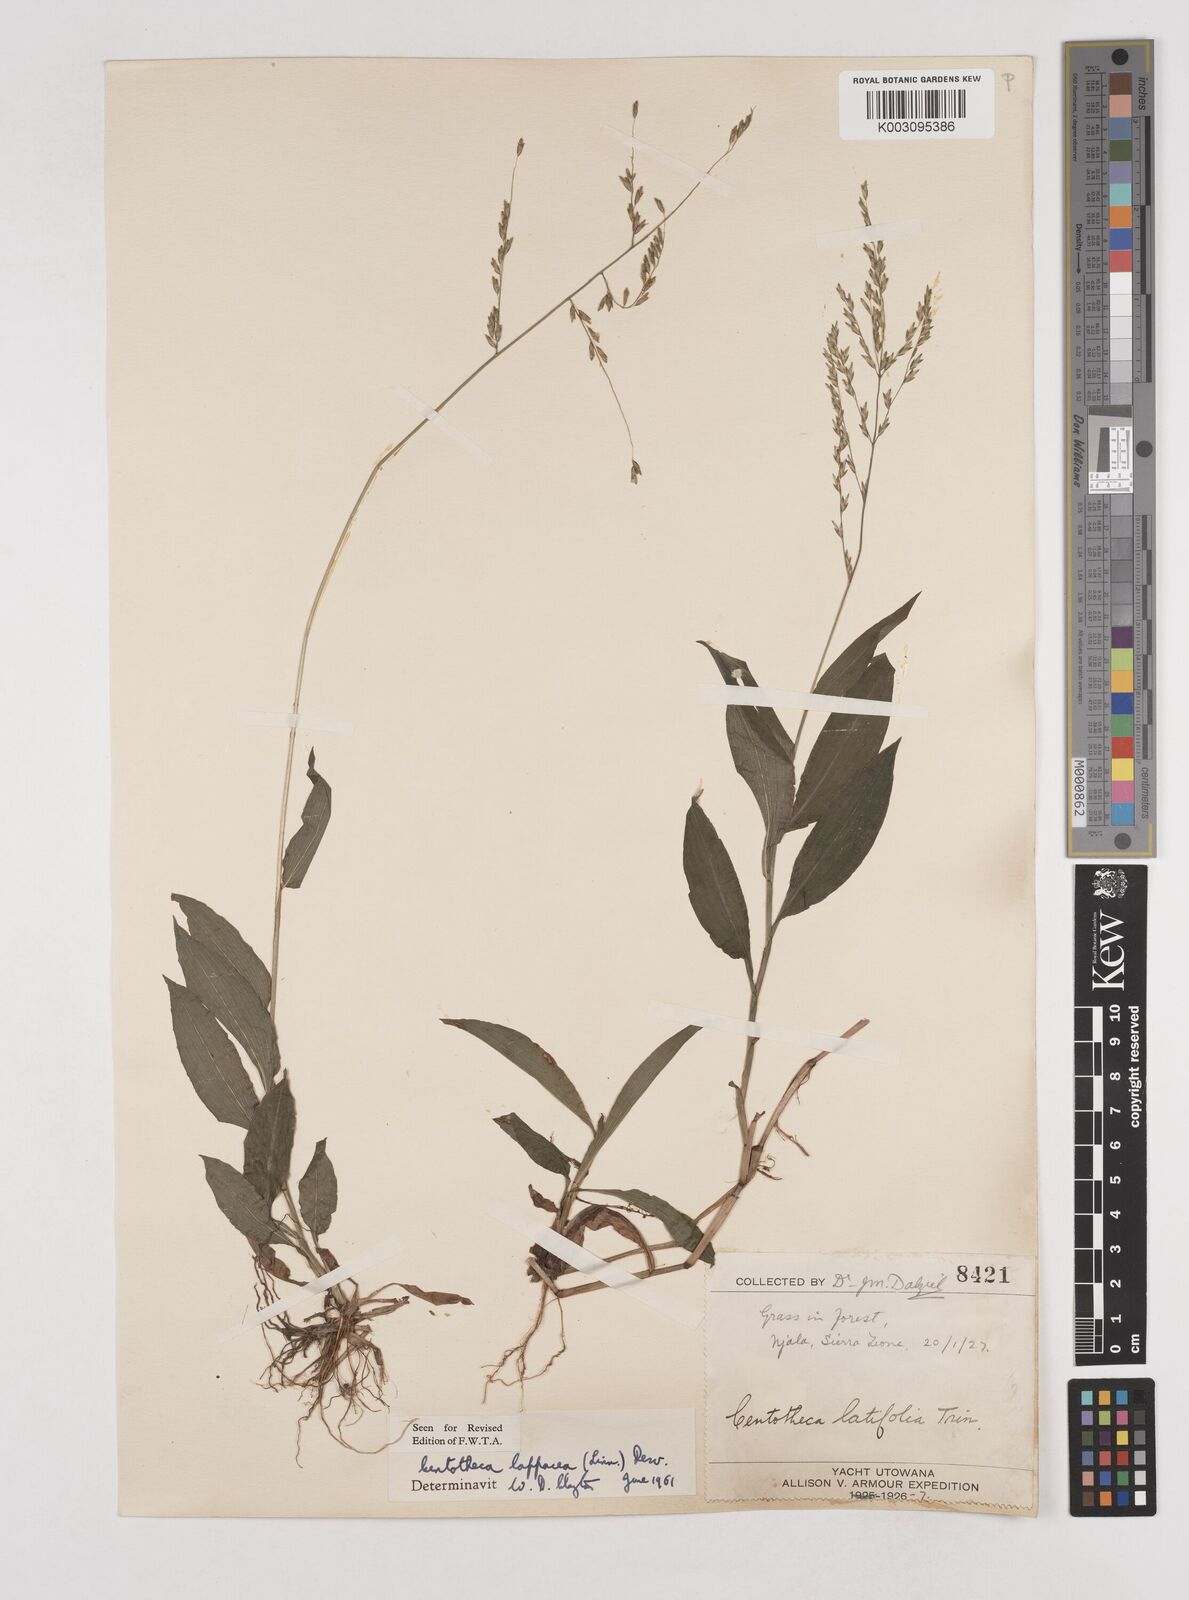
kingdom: Plantae
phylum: Tracheophyta
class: Liliopsida
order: Poales
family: Poaceae
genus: Centotheca
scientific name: Centotheca lappacea
